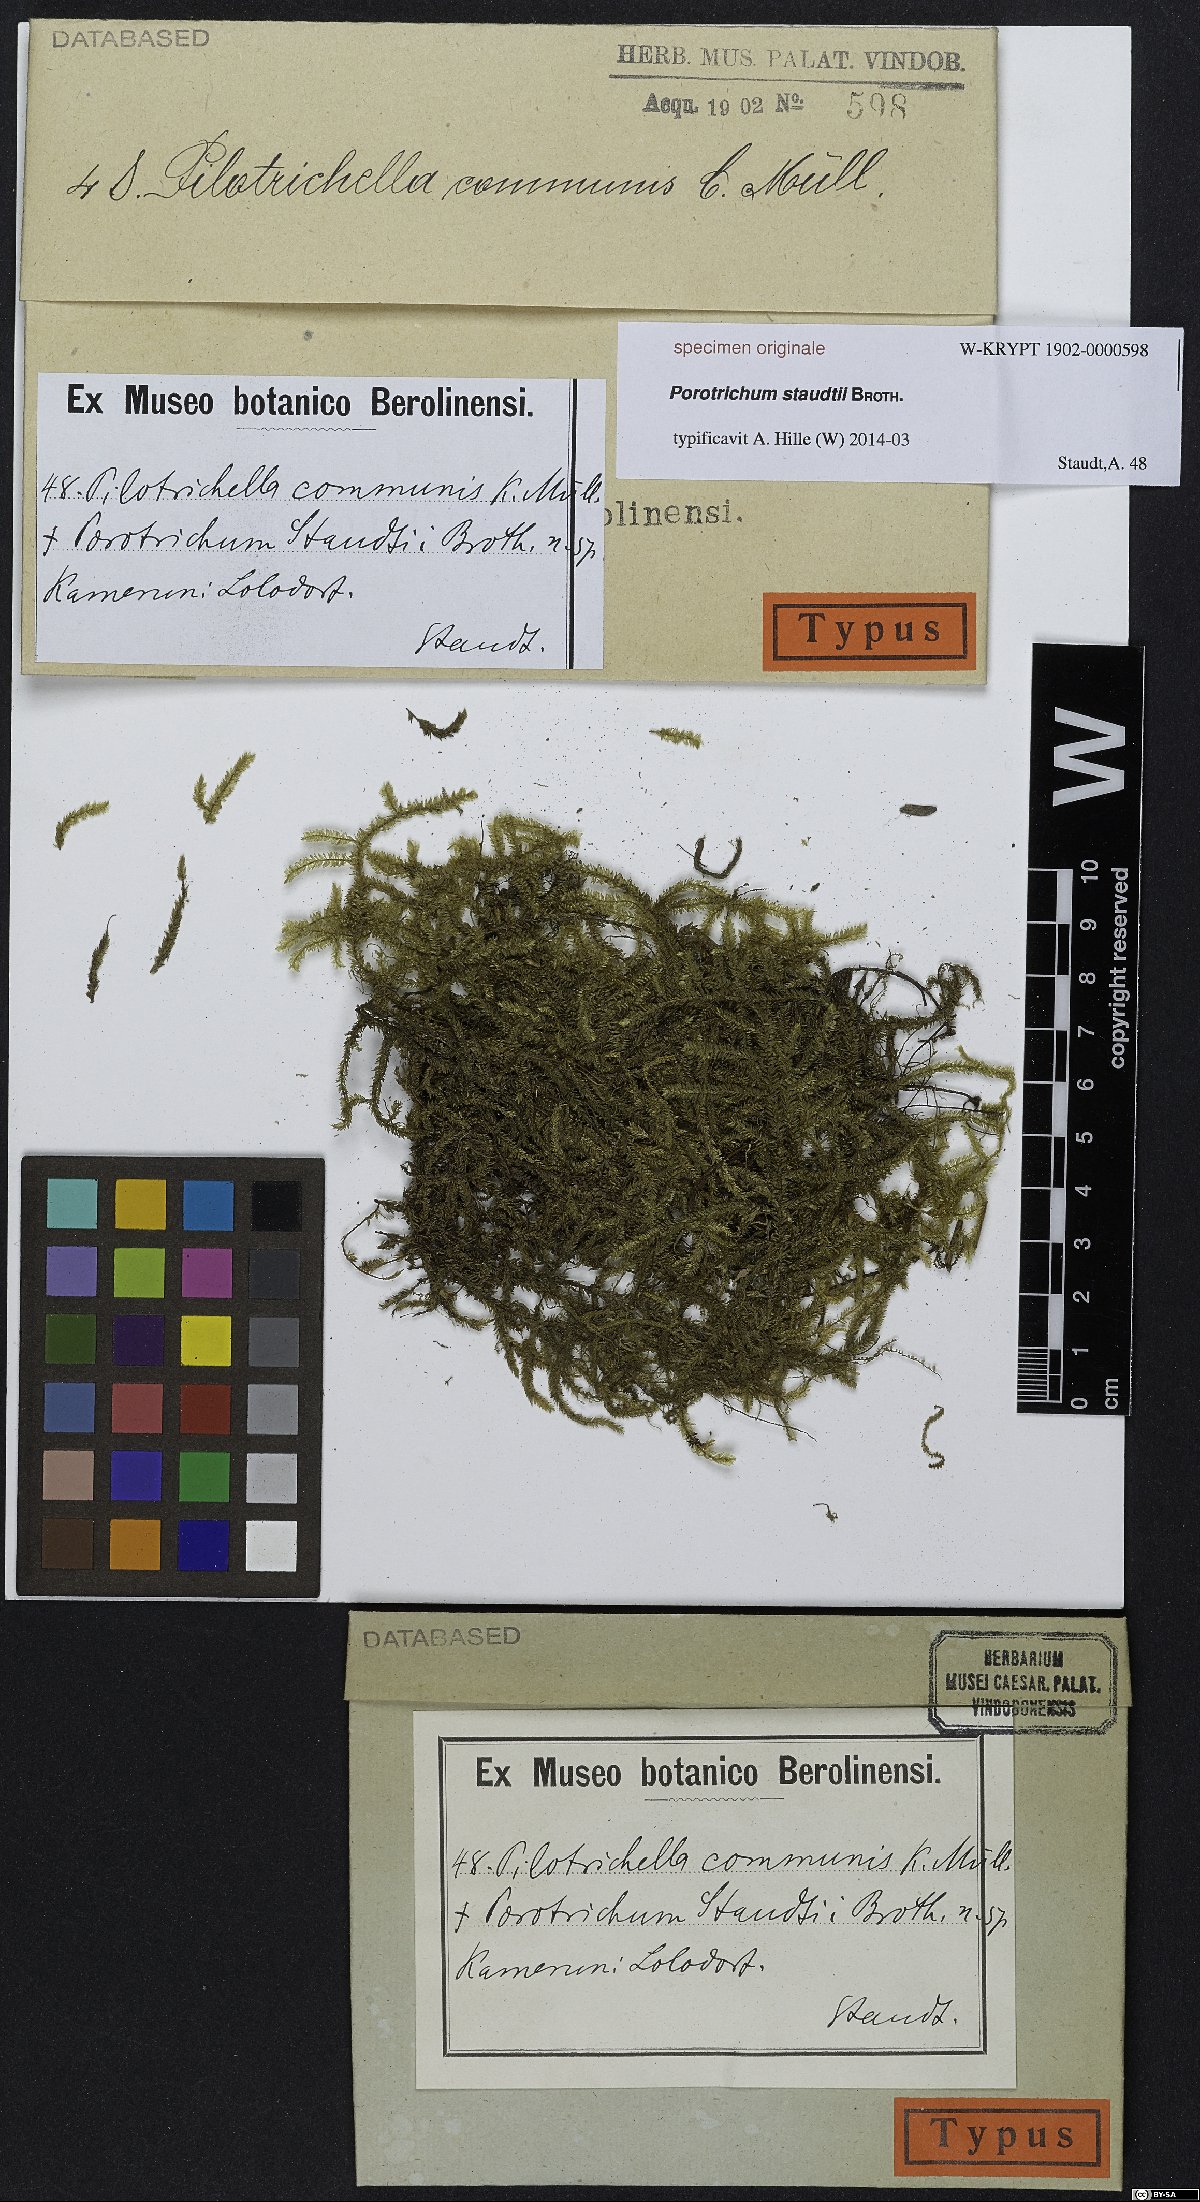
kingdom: Plantae
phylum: Bryophyta
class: Bryopsida
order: Hypnales
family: Neckeraceae
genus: Porotrichum
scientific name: Porotrichum
